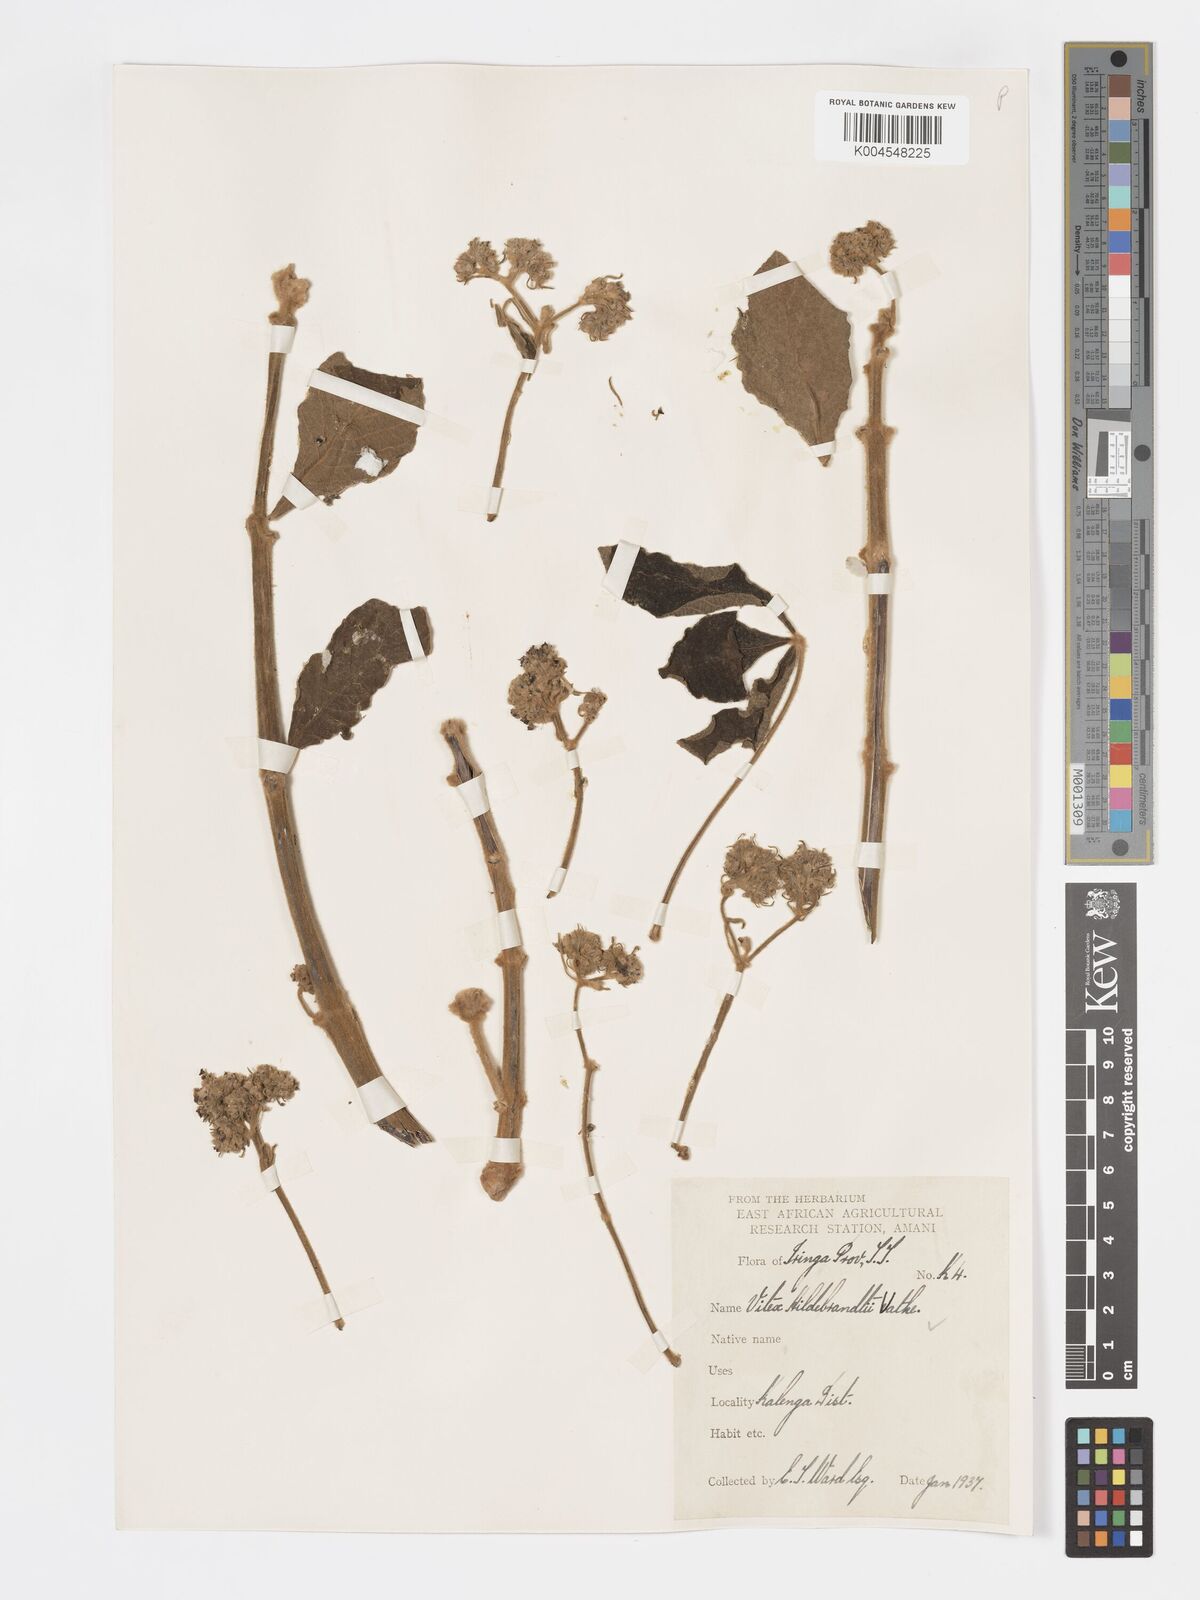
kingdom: Plantae
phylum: Tracheophyta
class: Magnoliopsida
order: Lamiales
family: Lamiaceae
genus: Vitex
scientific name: Vitex payos
